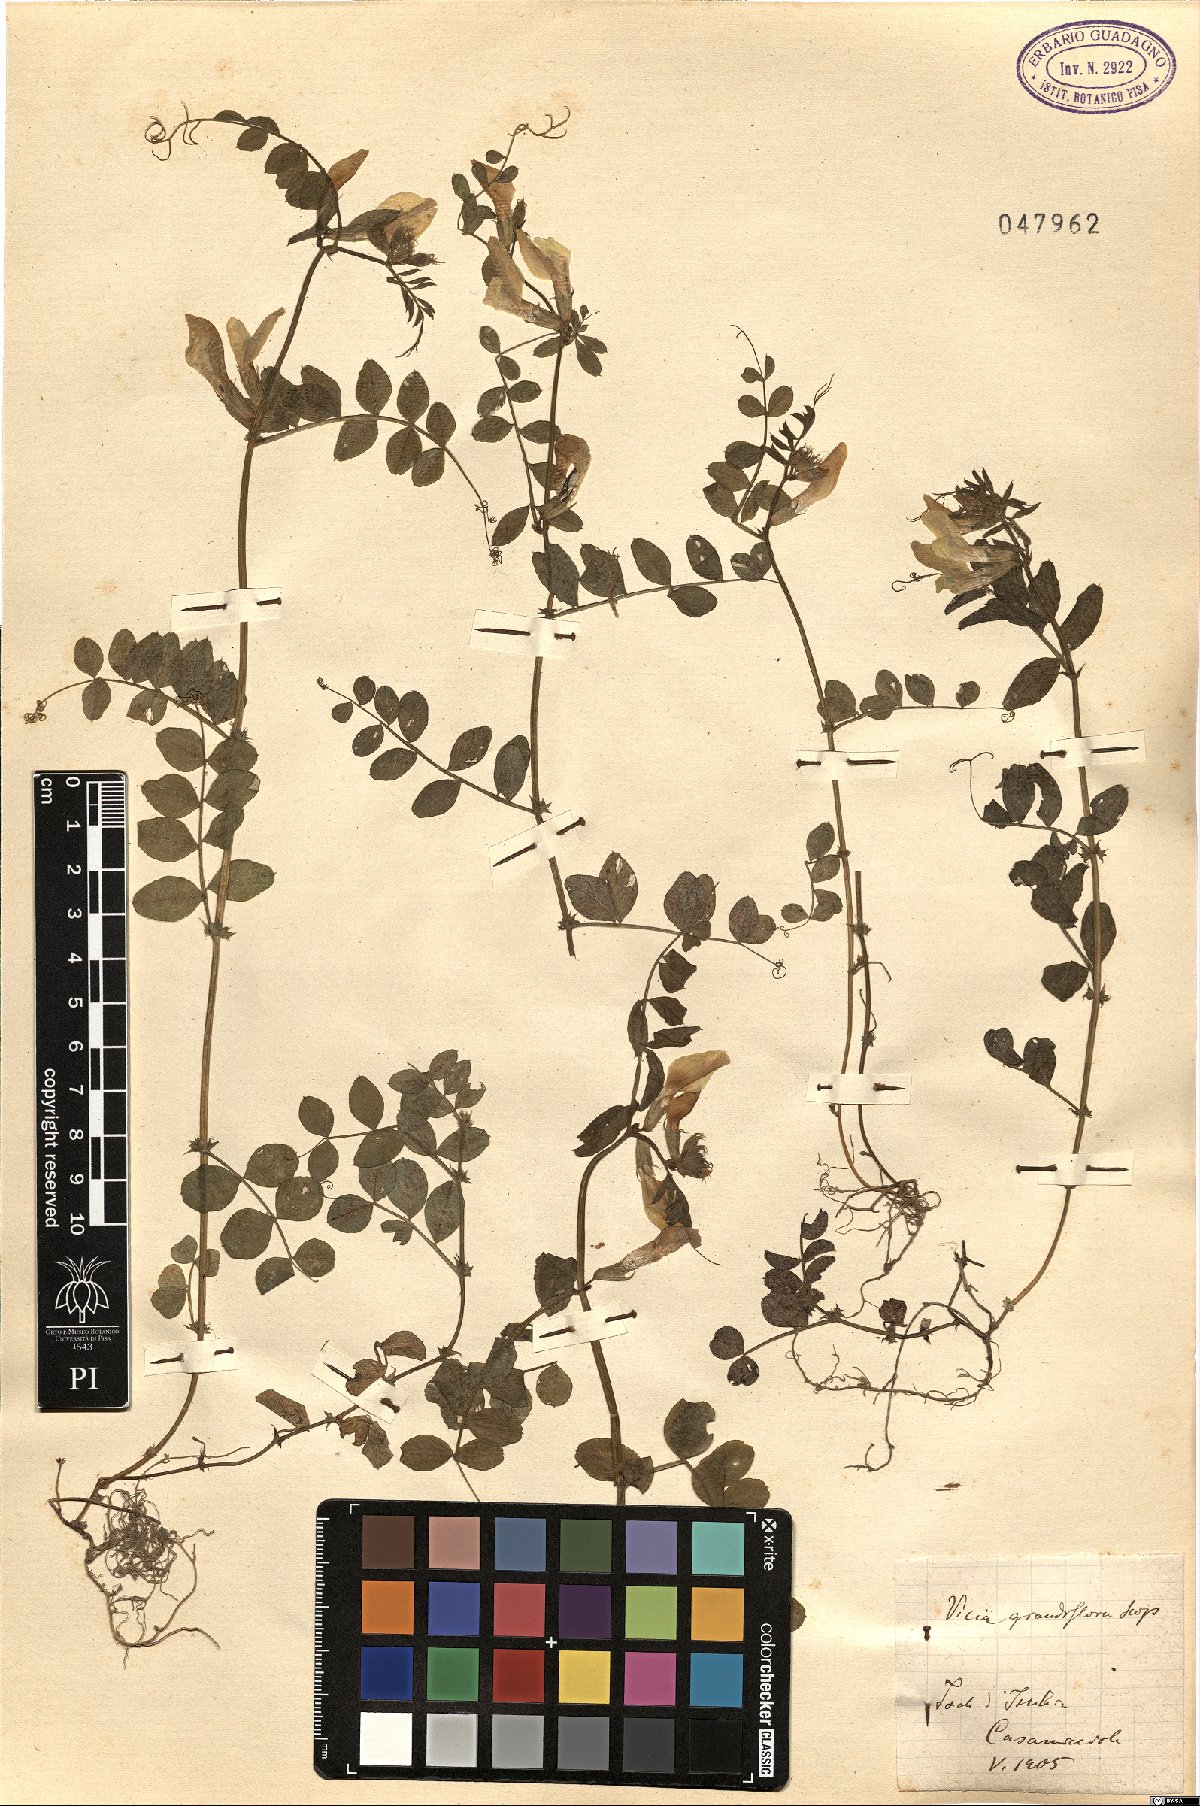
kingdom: Plantae
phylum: Tracheophyta
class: Magnoliopsida
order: Fabales
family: Fabaceae
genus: Vicia
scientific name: Vicia grandiflora
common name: Large yellow vetch
